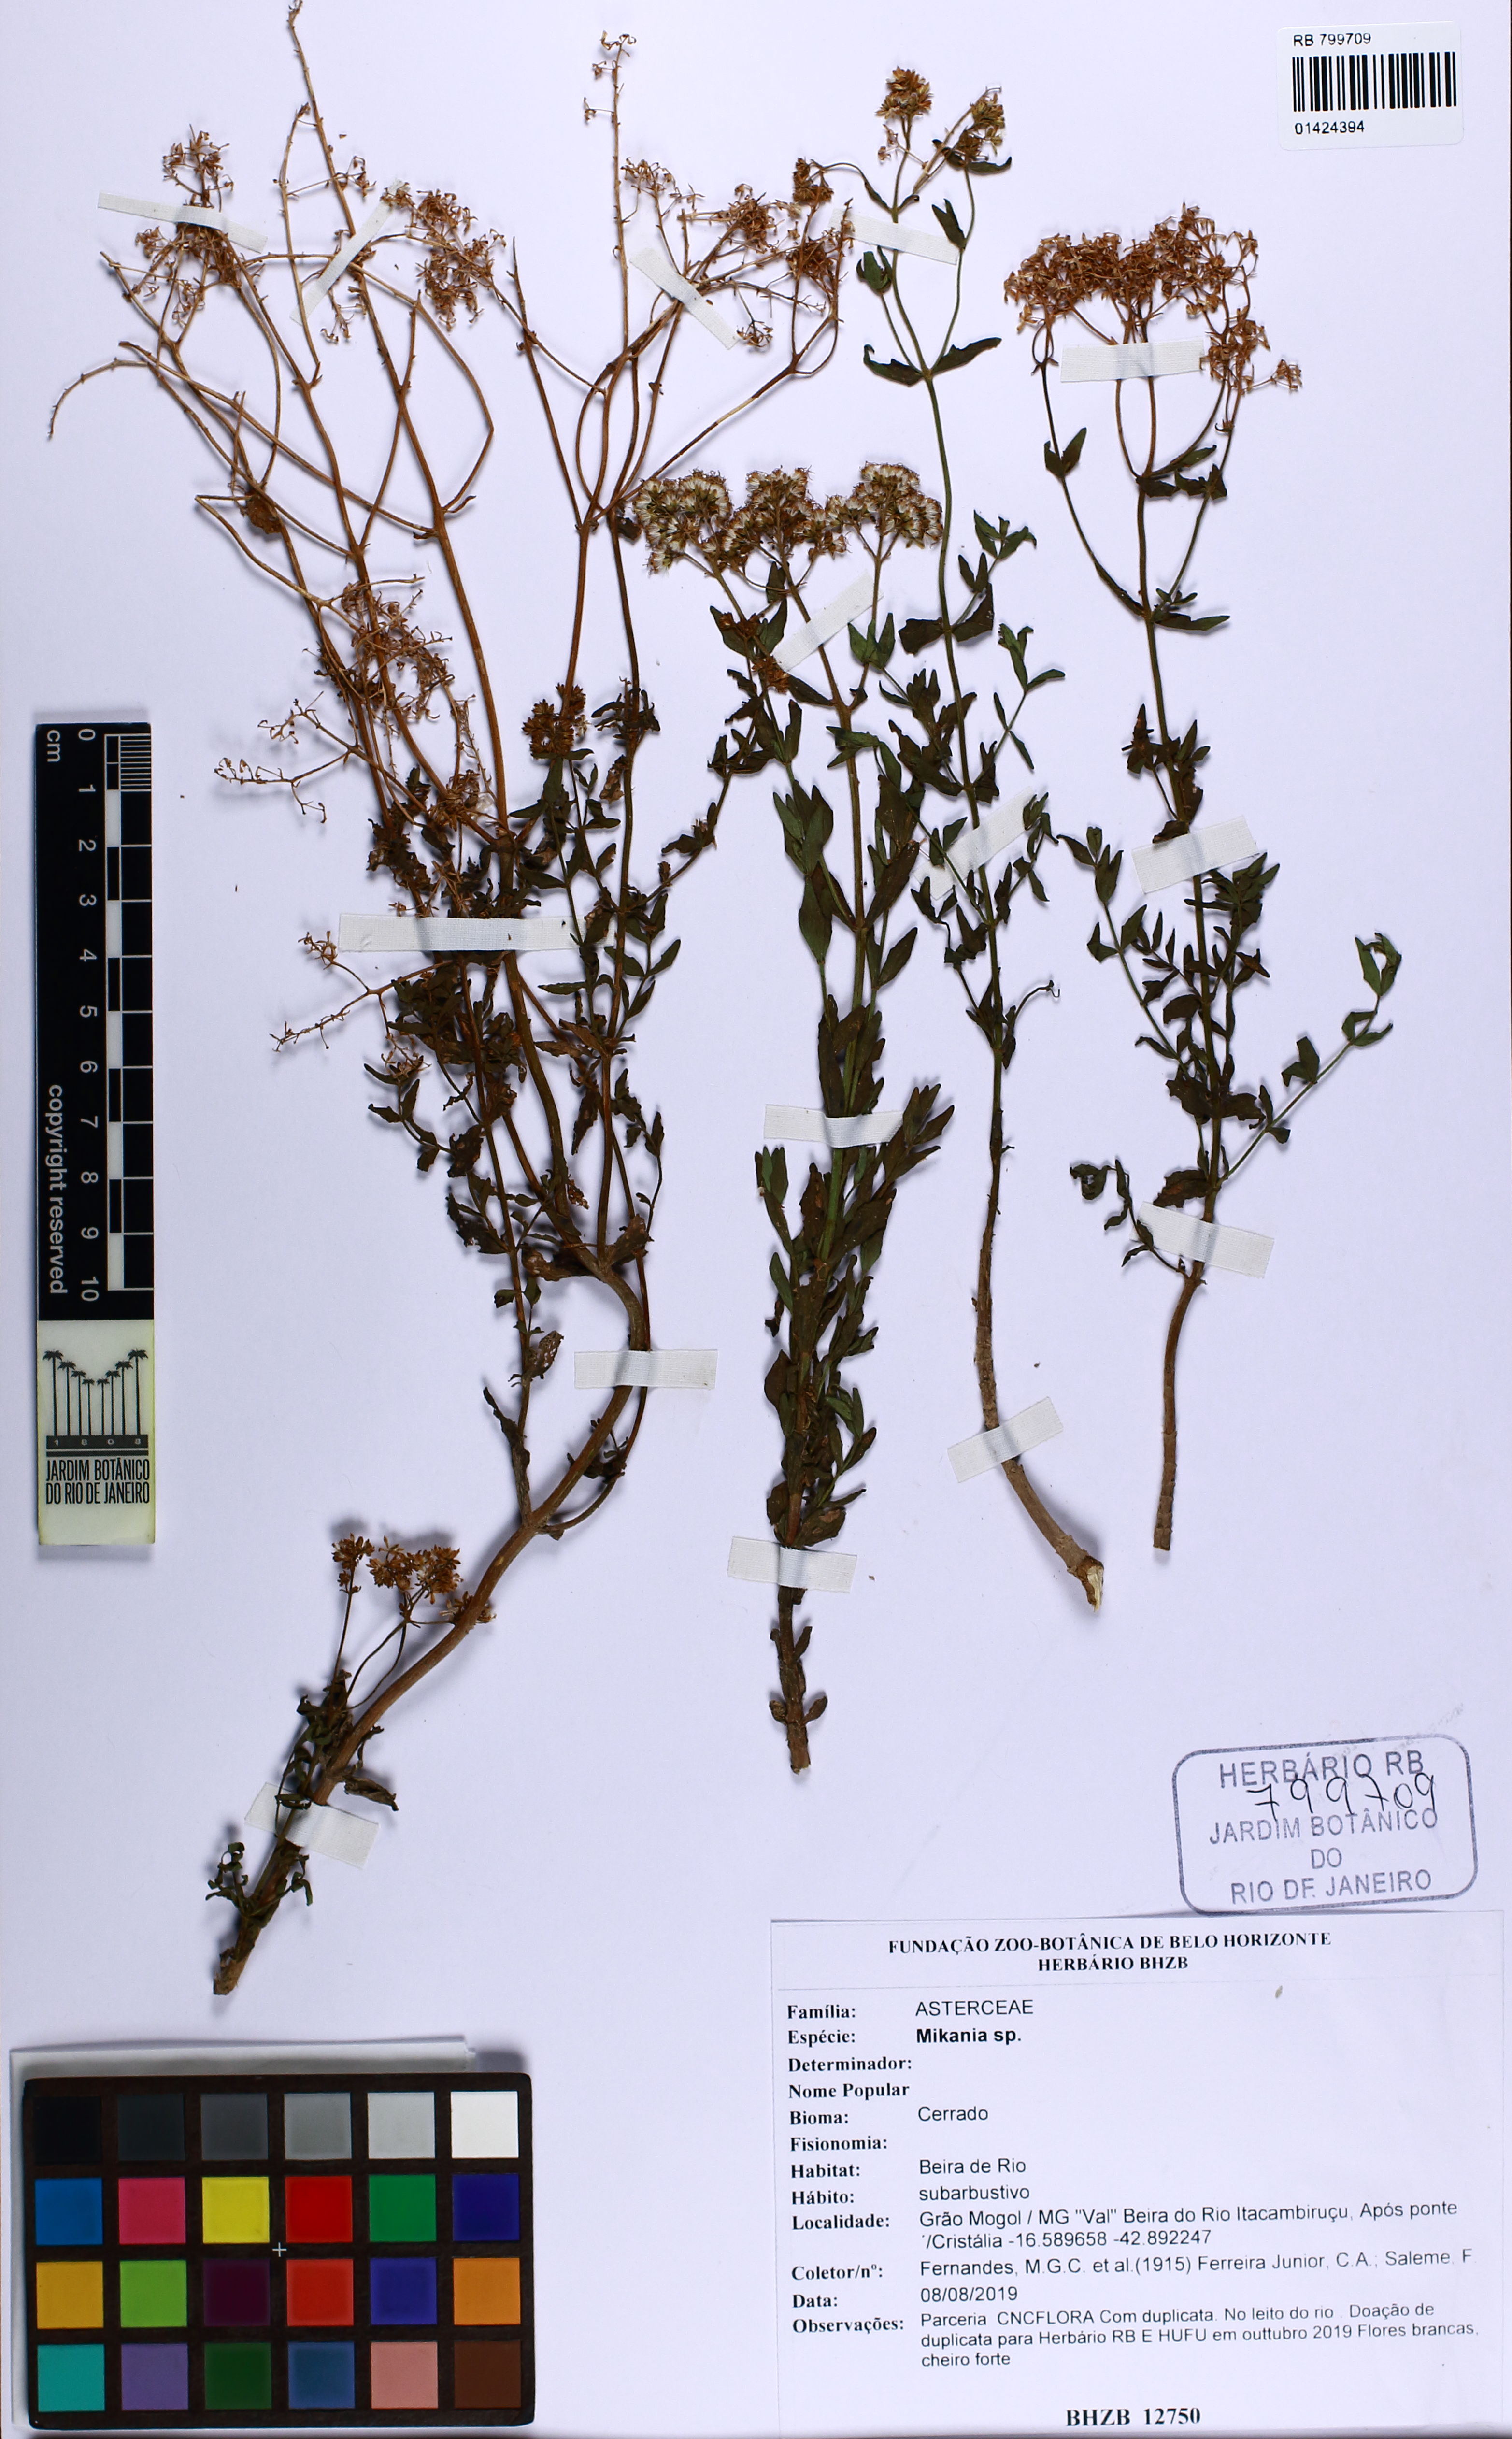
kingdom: Plantae
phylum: Tracheophyta
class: Magnoliopsida
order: Asterales
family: Asteraceae
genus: Mikania
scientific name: Mikania
